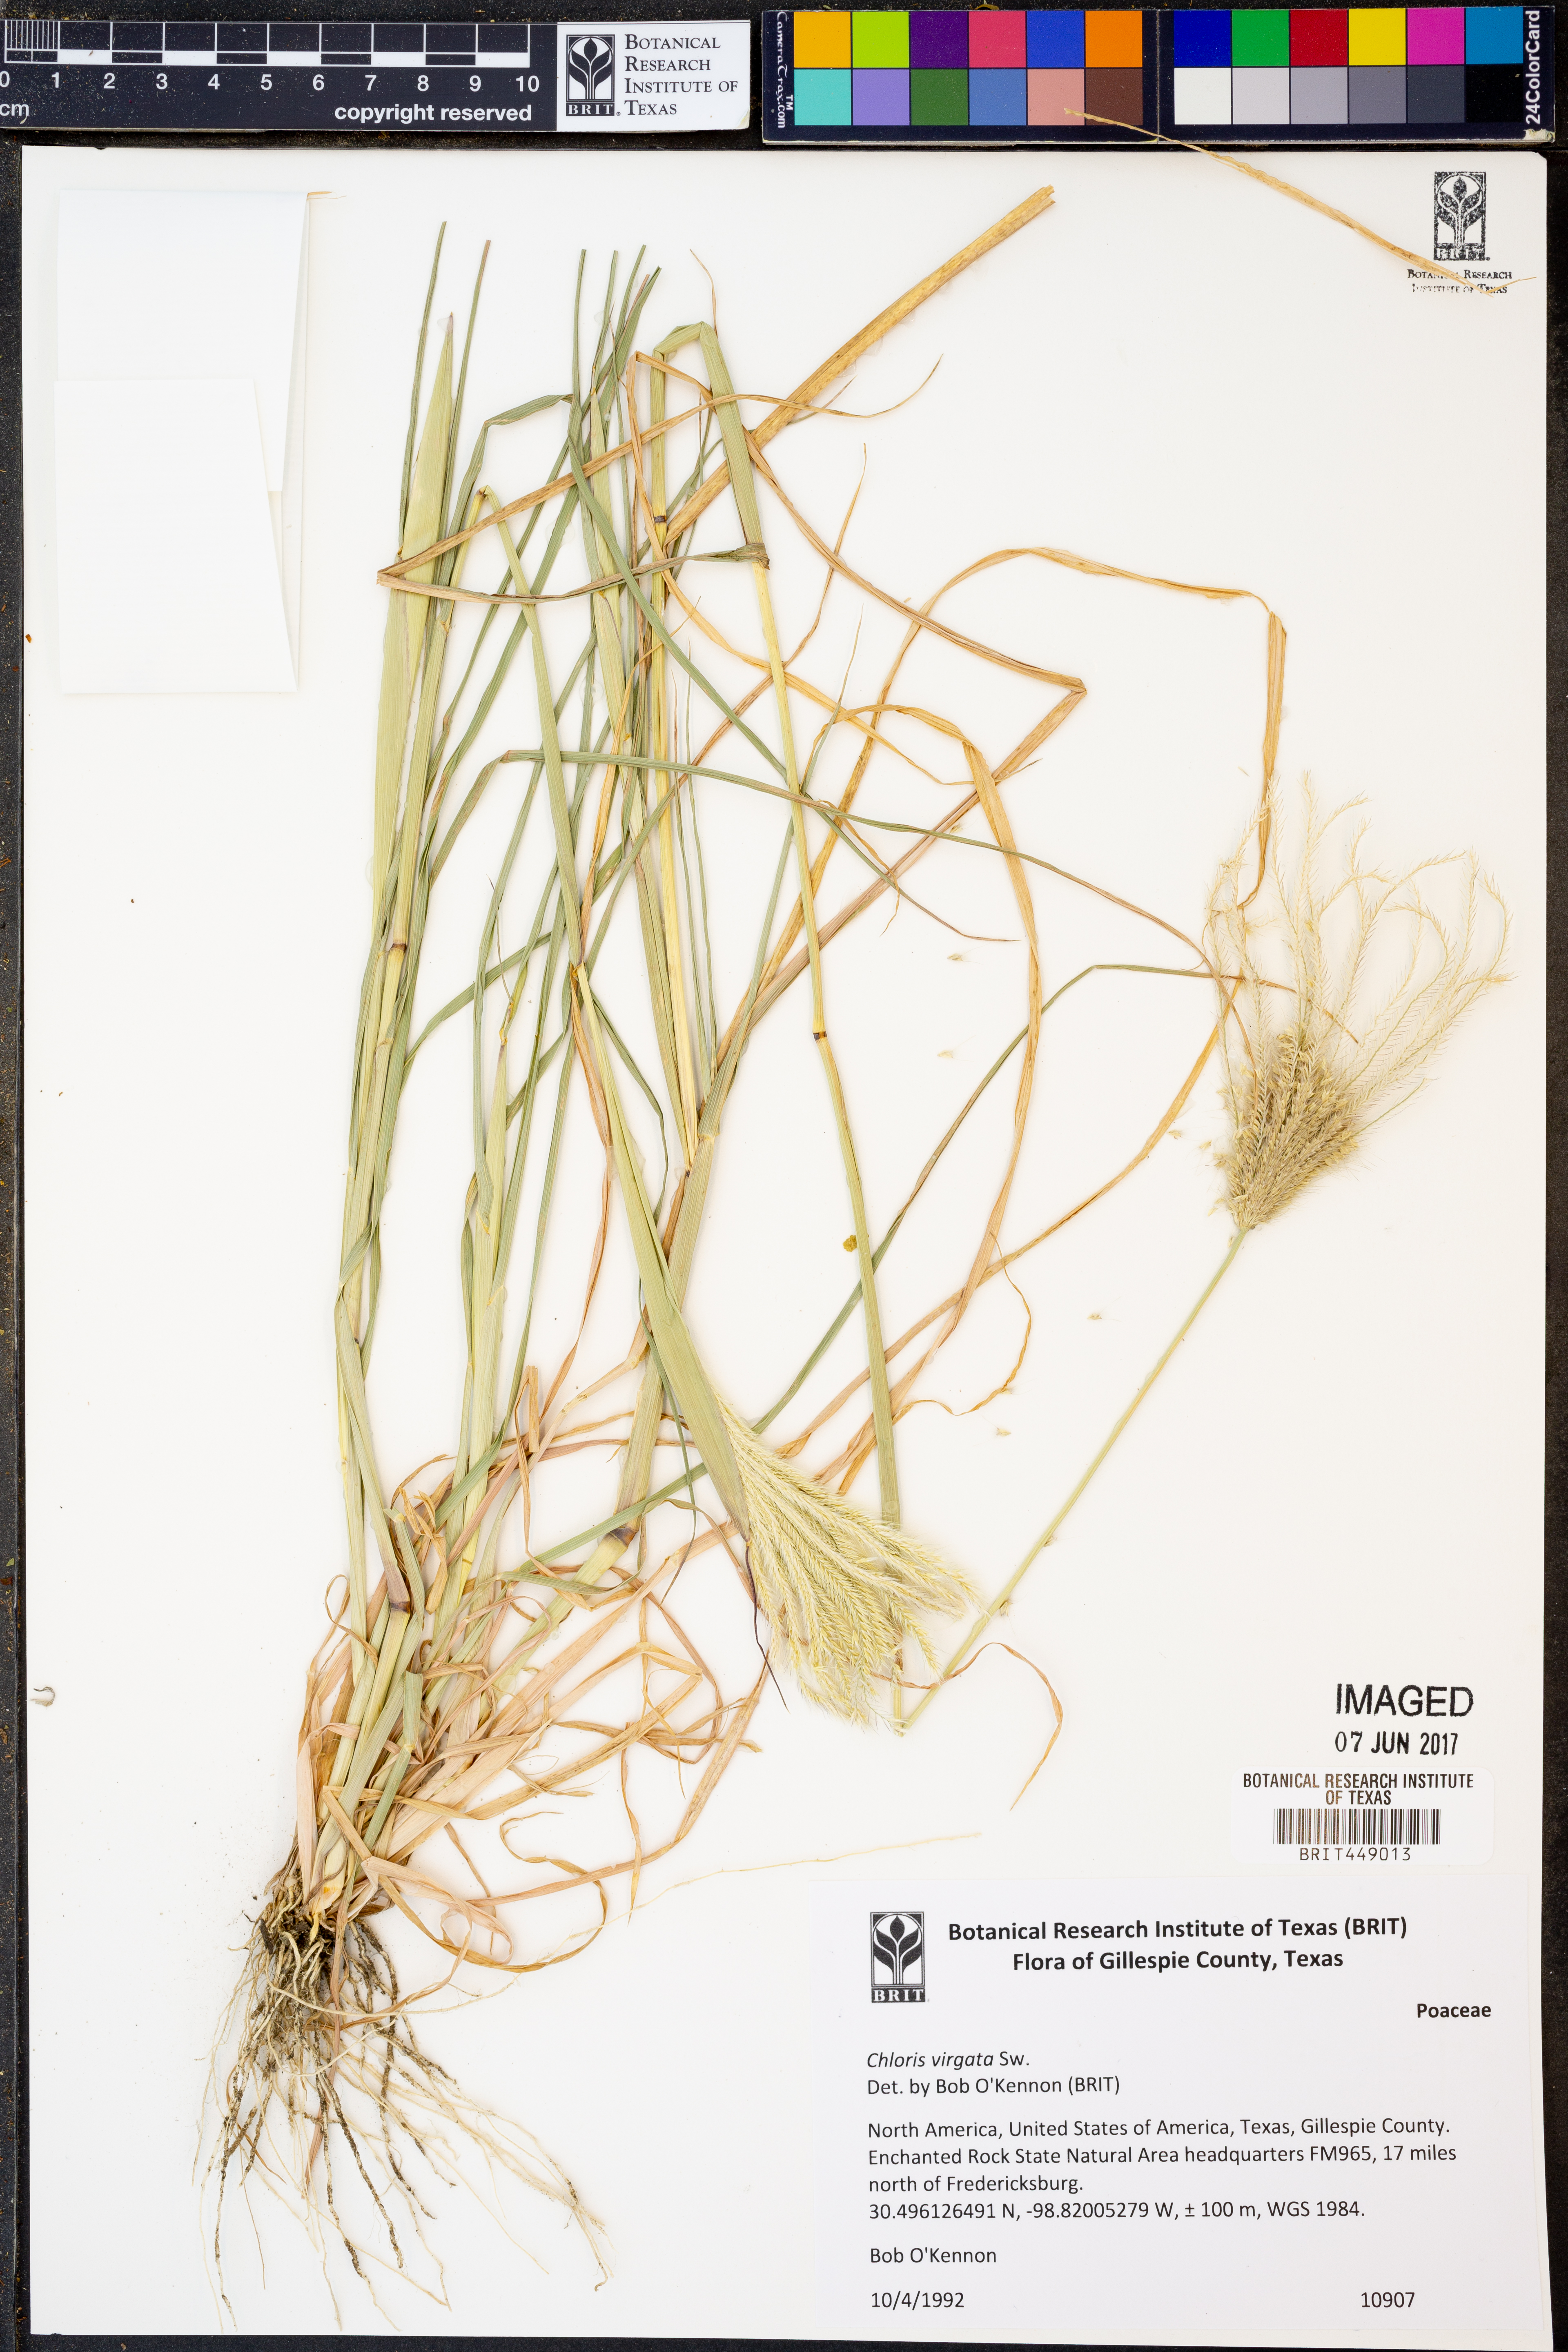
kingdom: Plantae
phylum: Tracheophyta
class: Liliopsida
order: Poales
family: Poaceae
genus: Chloris
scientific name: Chloris virgata
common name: Feathery rhodes-grass
